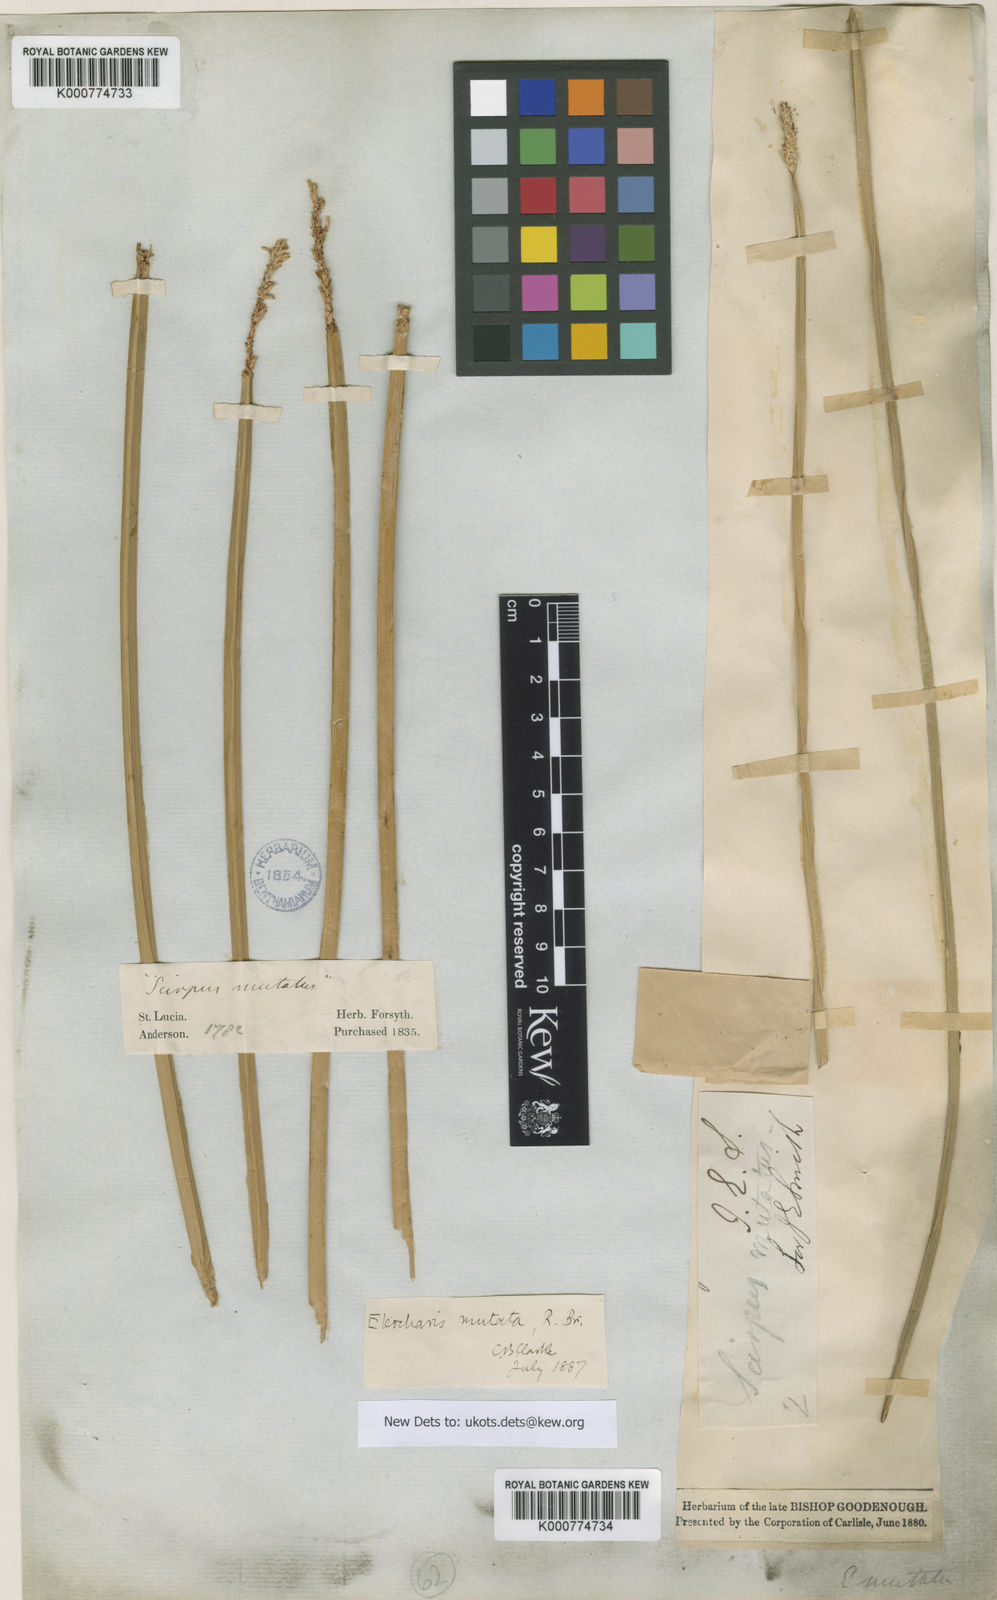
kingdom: Plantae
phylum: Tracheophyta
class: Liliopsida
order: Poales
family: Cyperaceae
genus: Eleocharis
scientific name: Eleocharis mutata
